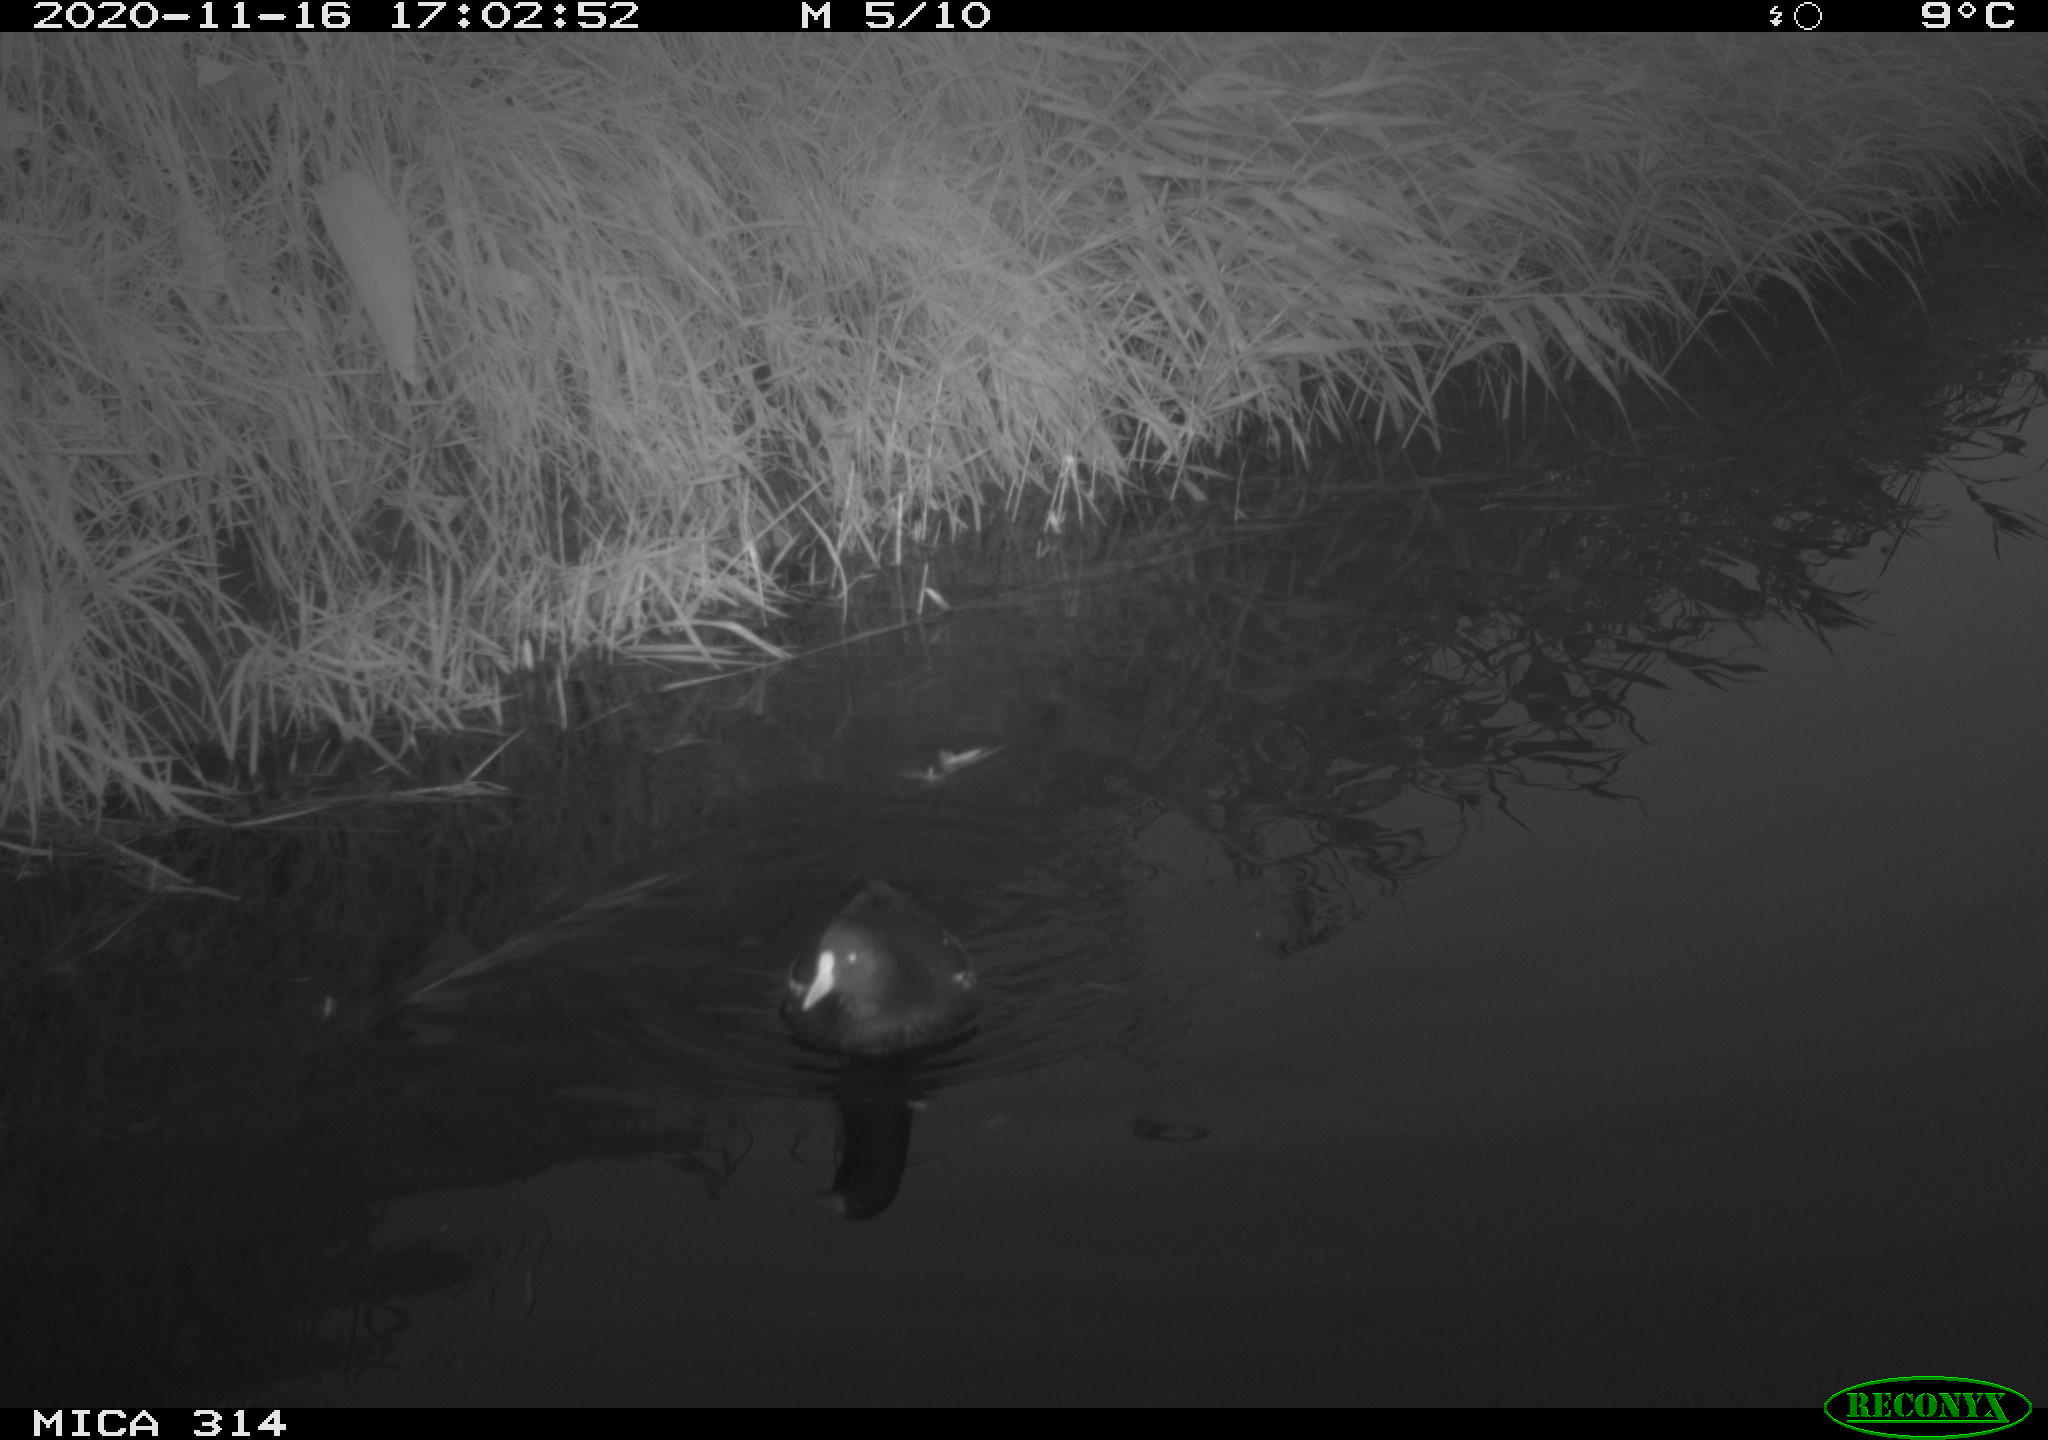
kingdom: Animalia
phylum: Chordata
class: Aves
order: Gruiformes
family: Rallidae
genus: Gallinula
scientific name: Gallinula chloropus
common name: Common moorhen
